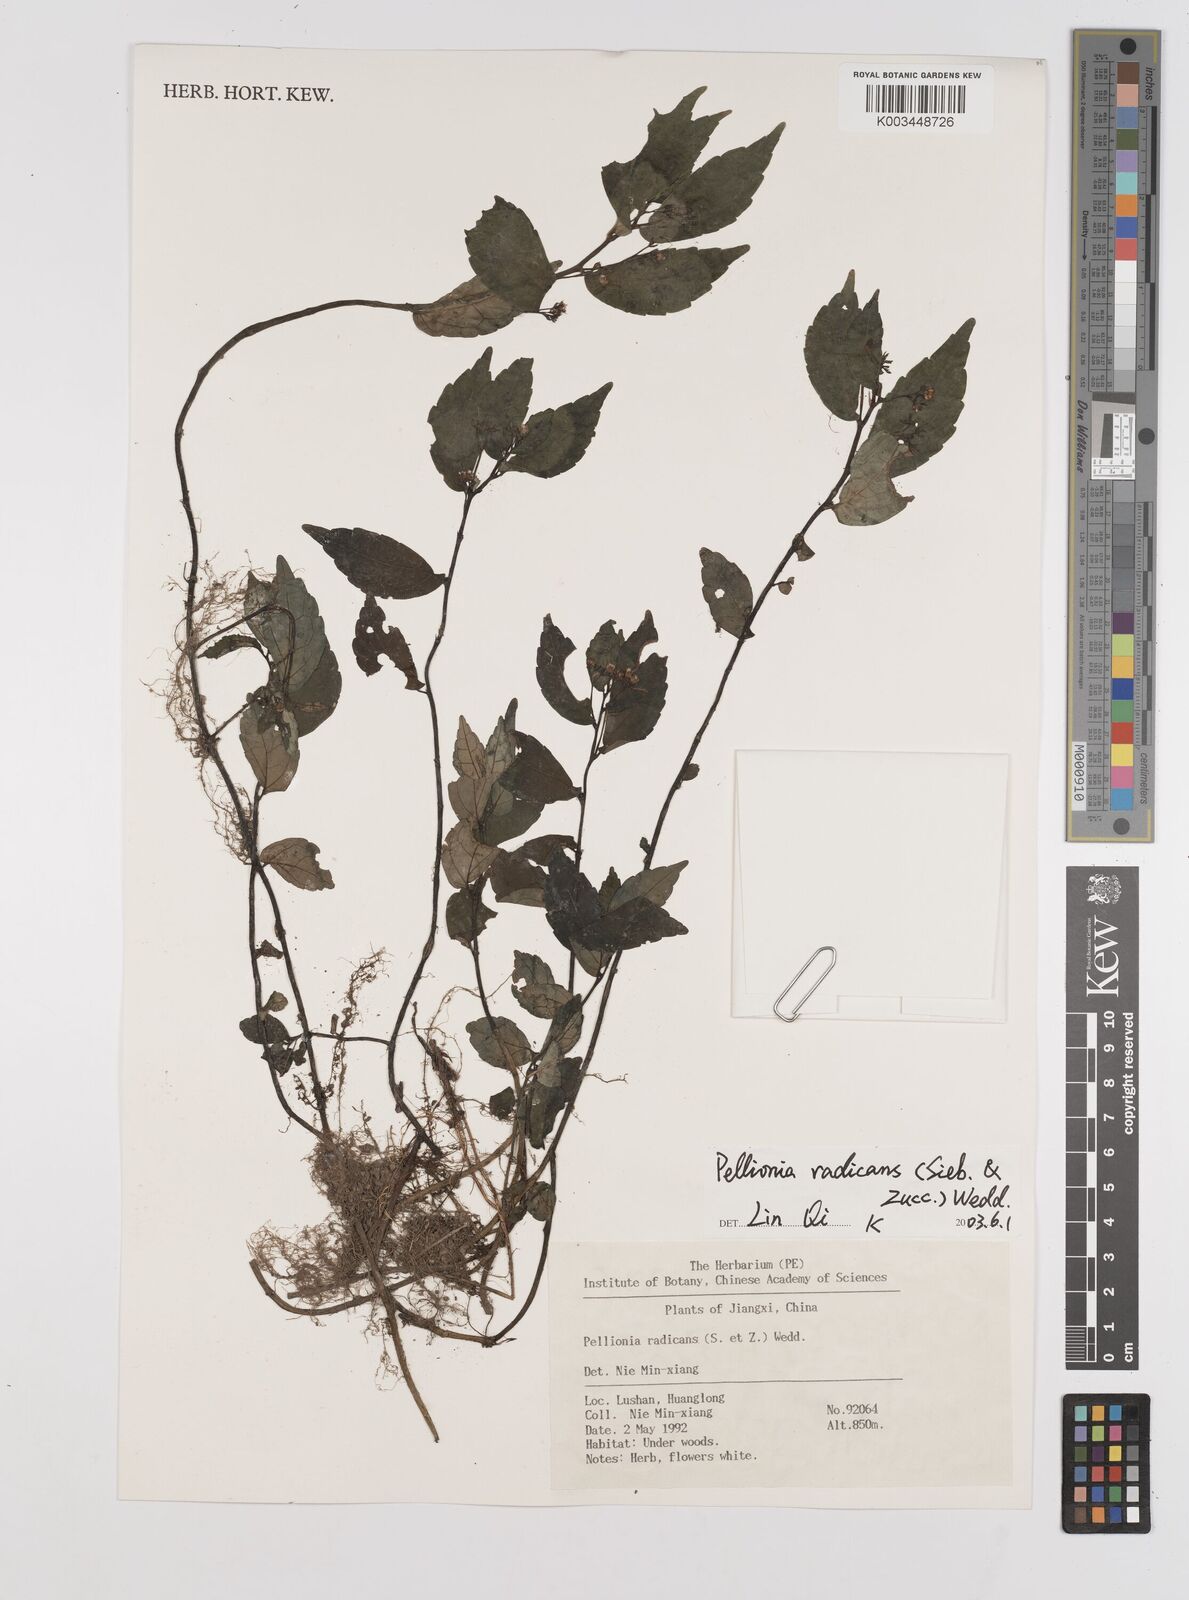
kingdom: Plantae
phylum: Tracheophyta
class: Magnoliopsida
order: Rosales
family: Urticaceae
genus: Elatostema
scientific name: Elatostema radicans
